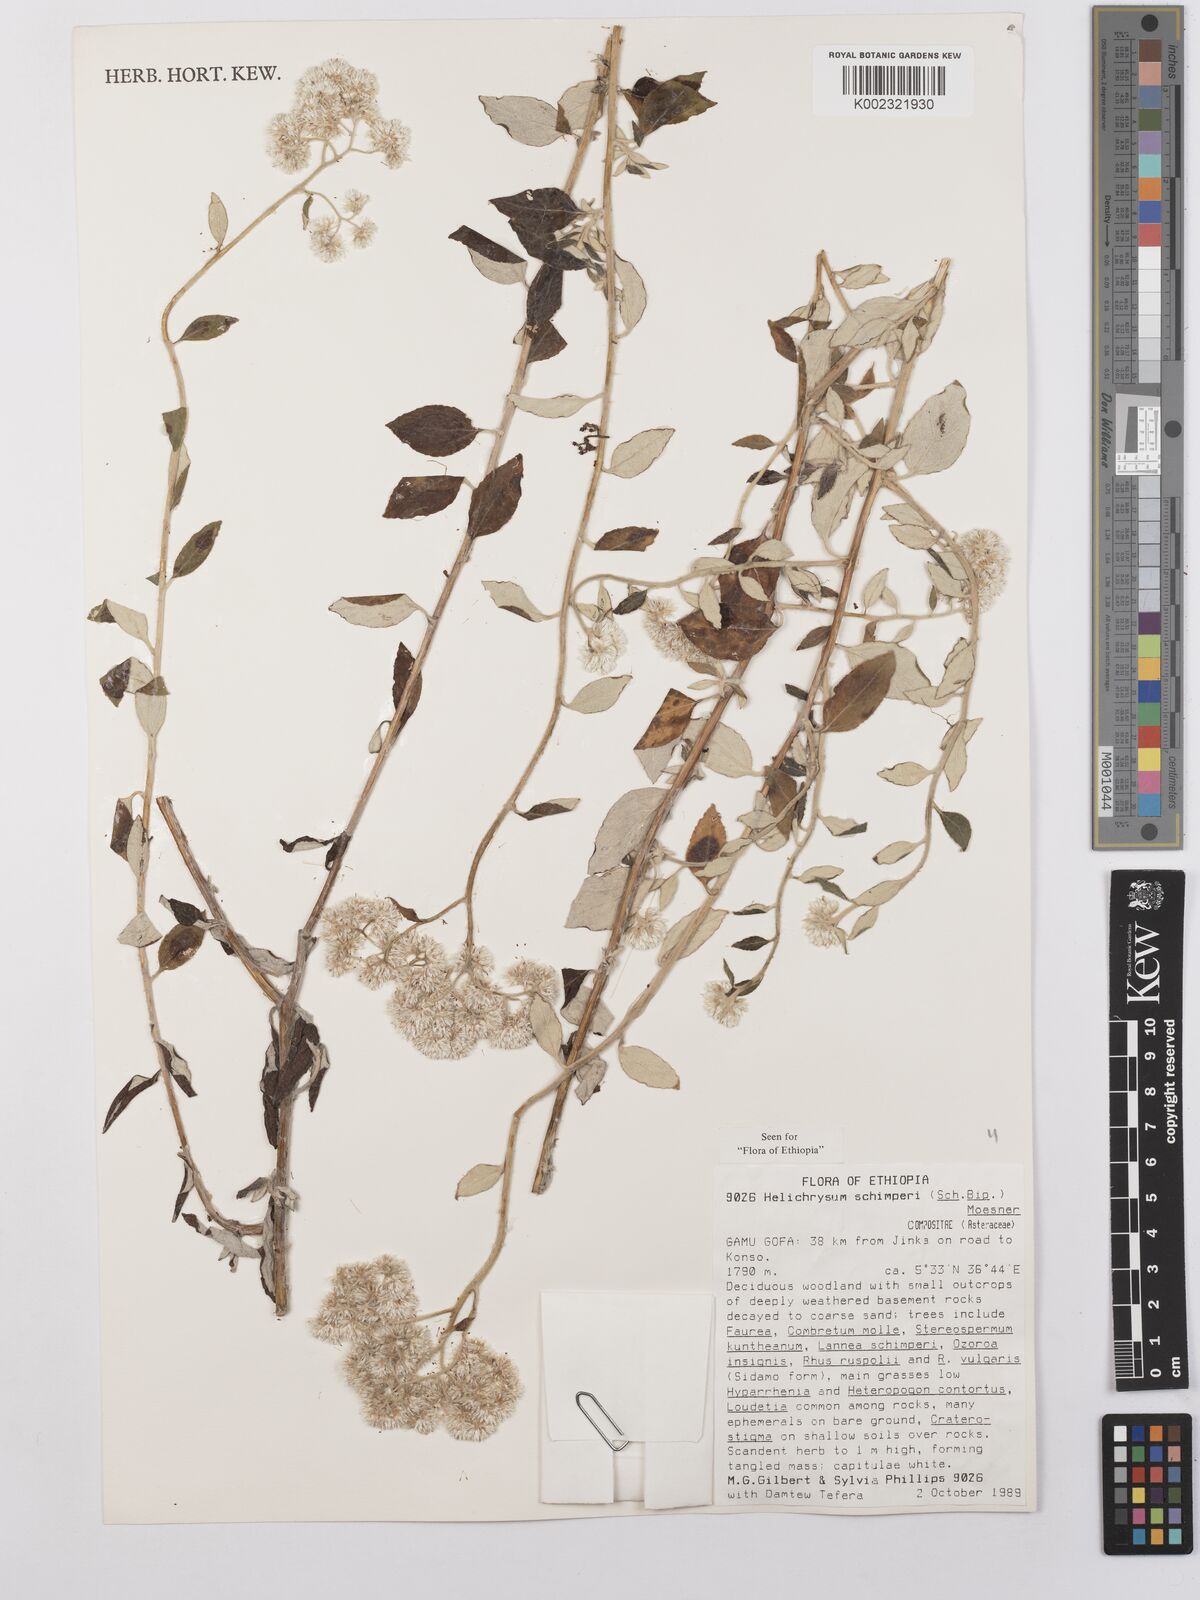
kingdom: Plantae
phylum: Tracheophyta
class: Magnoliopsida
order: Asterales
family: Asteraceae
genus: Helichrysum
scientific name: Helichrysum schimperi
